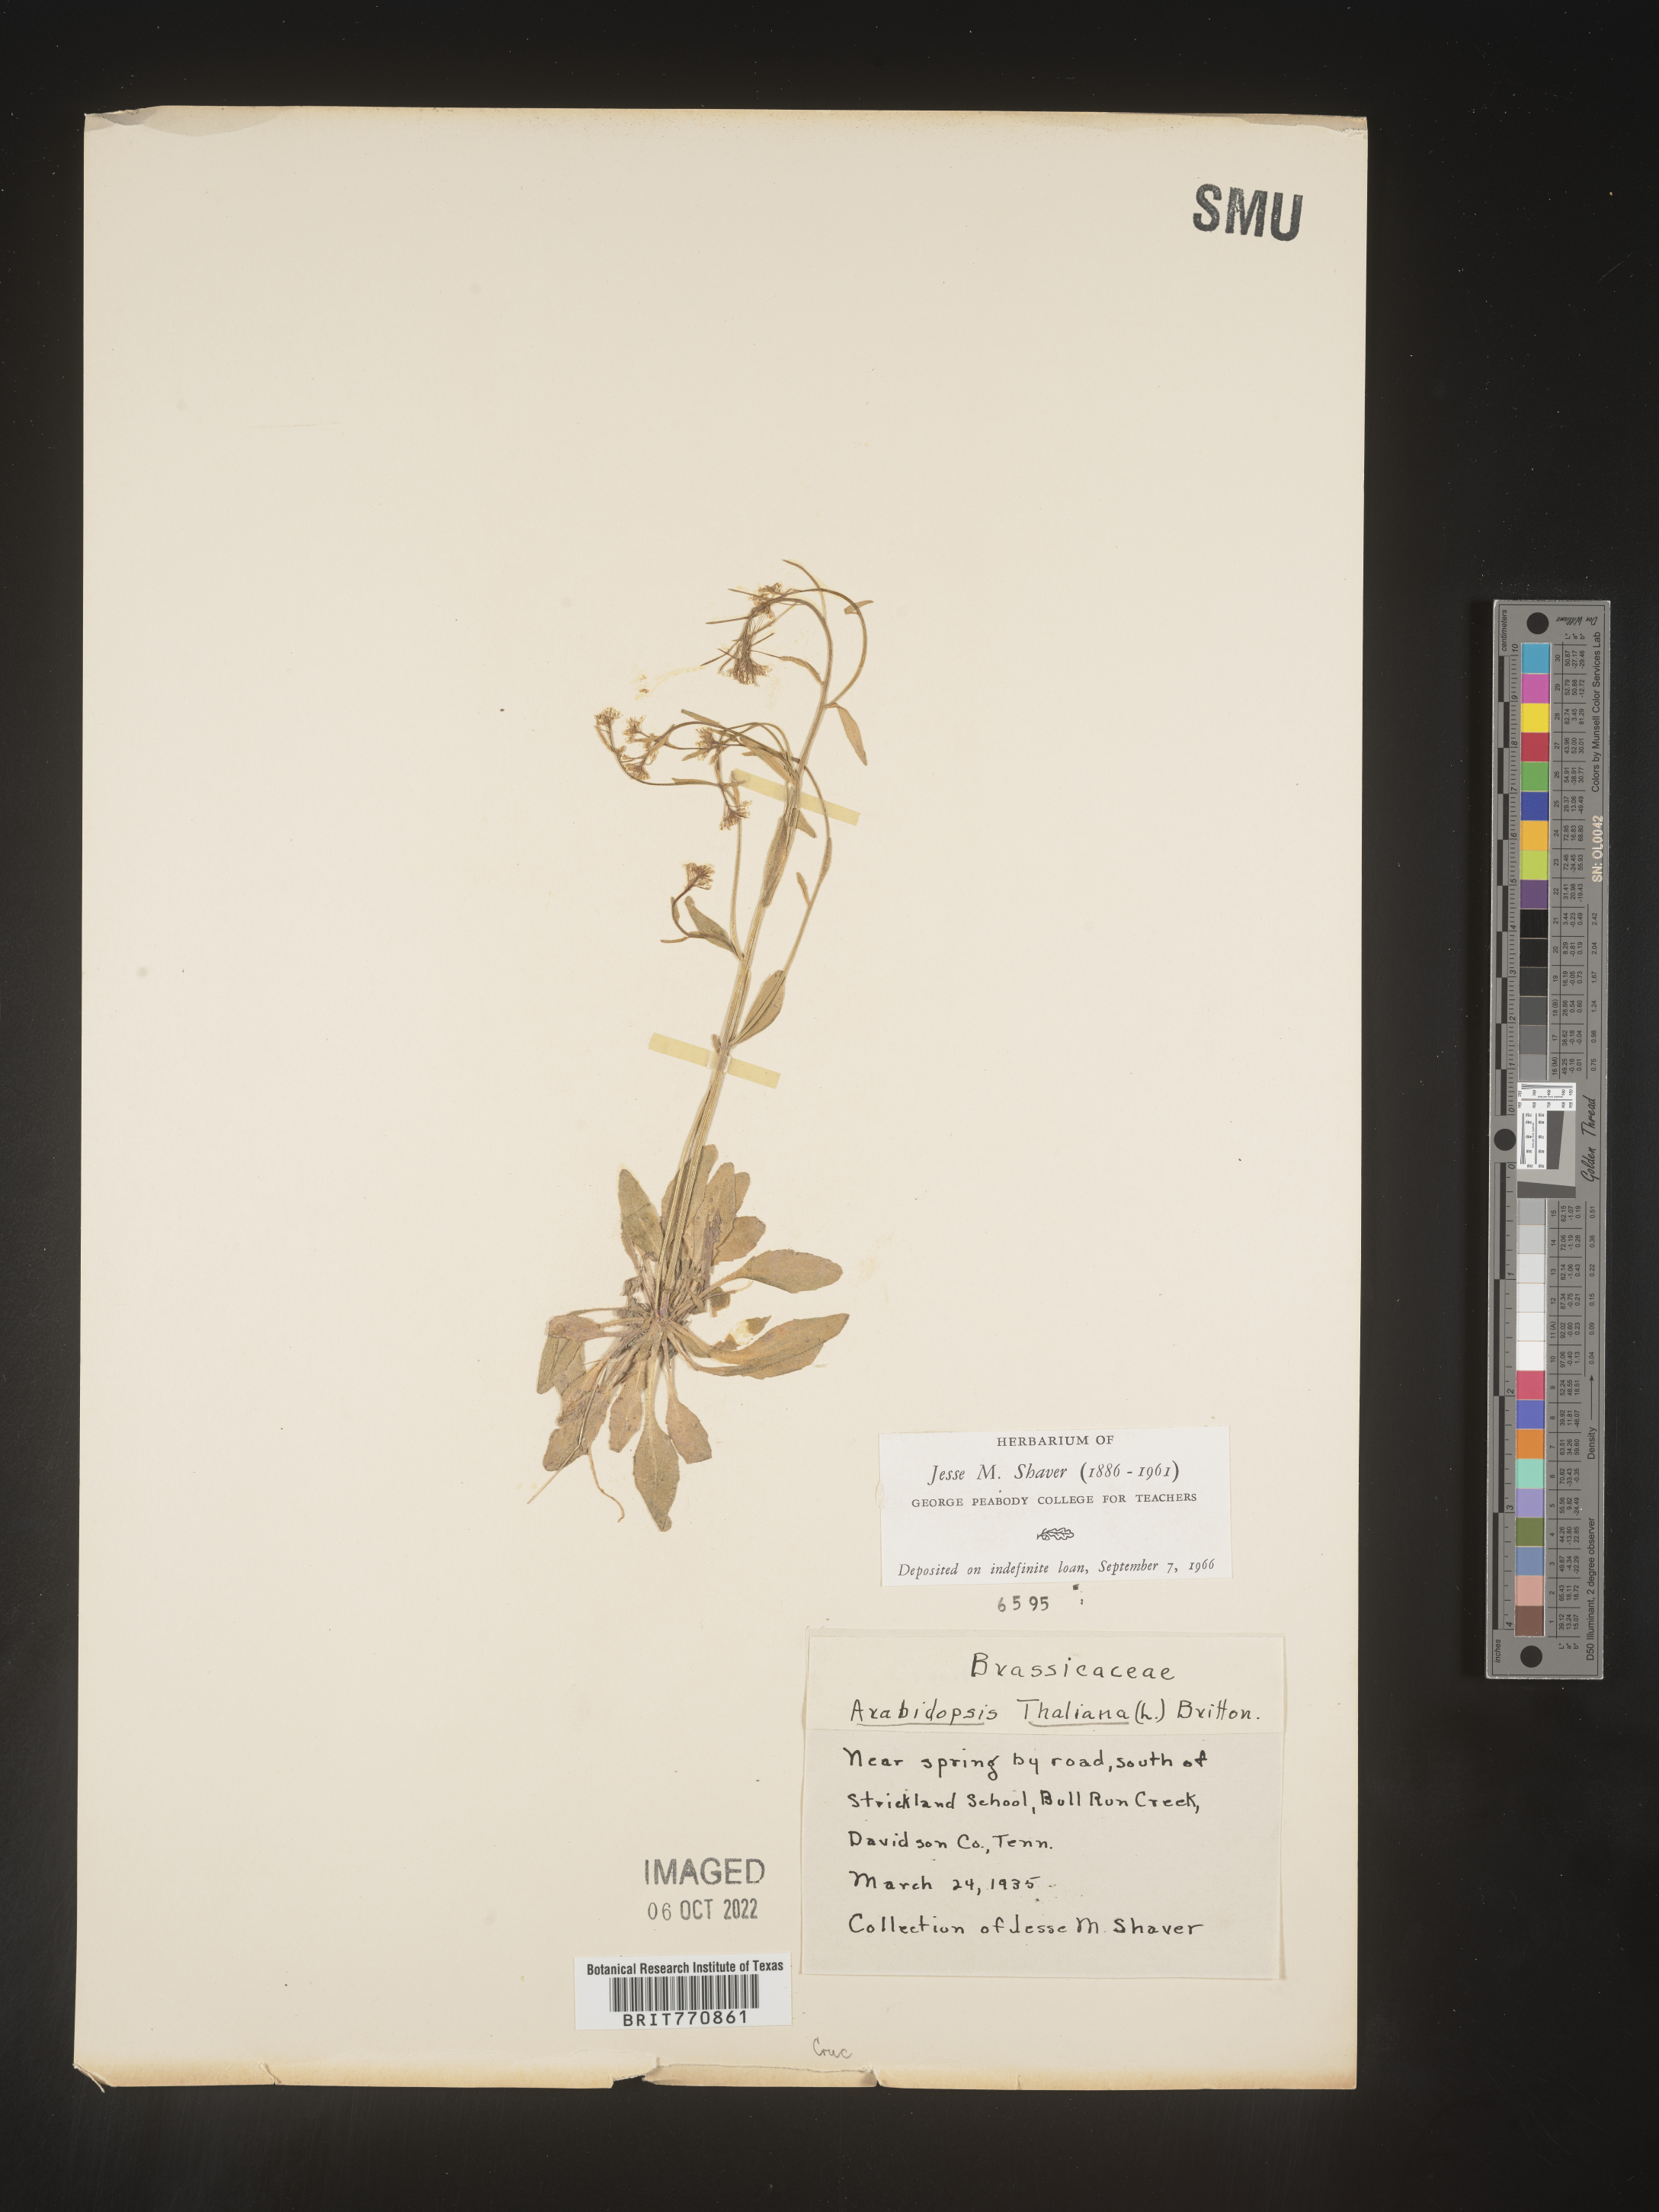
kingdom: Plantae
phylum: Tracheophyta
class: Magnoliopsida
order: Brassicales
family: Brassicaceae
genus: Arabidopsis
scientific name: Arabidopsis thaliana
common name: Thale cress
